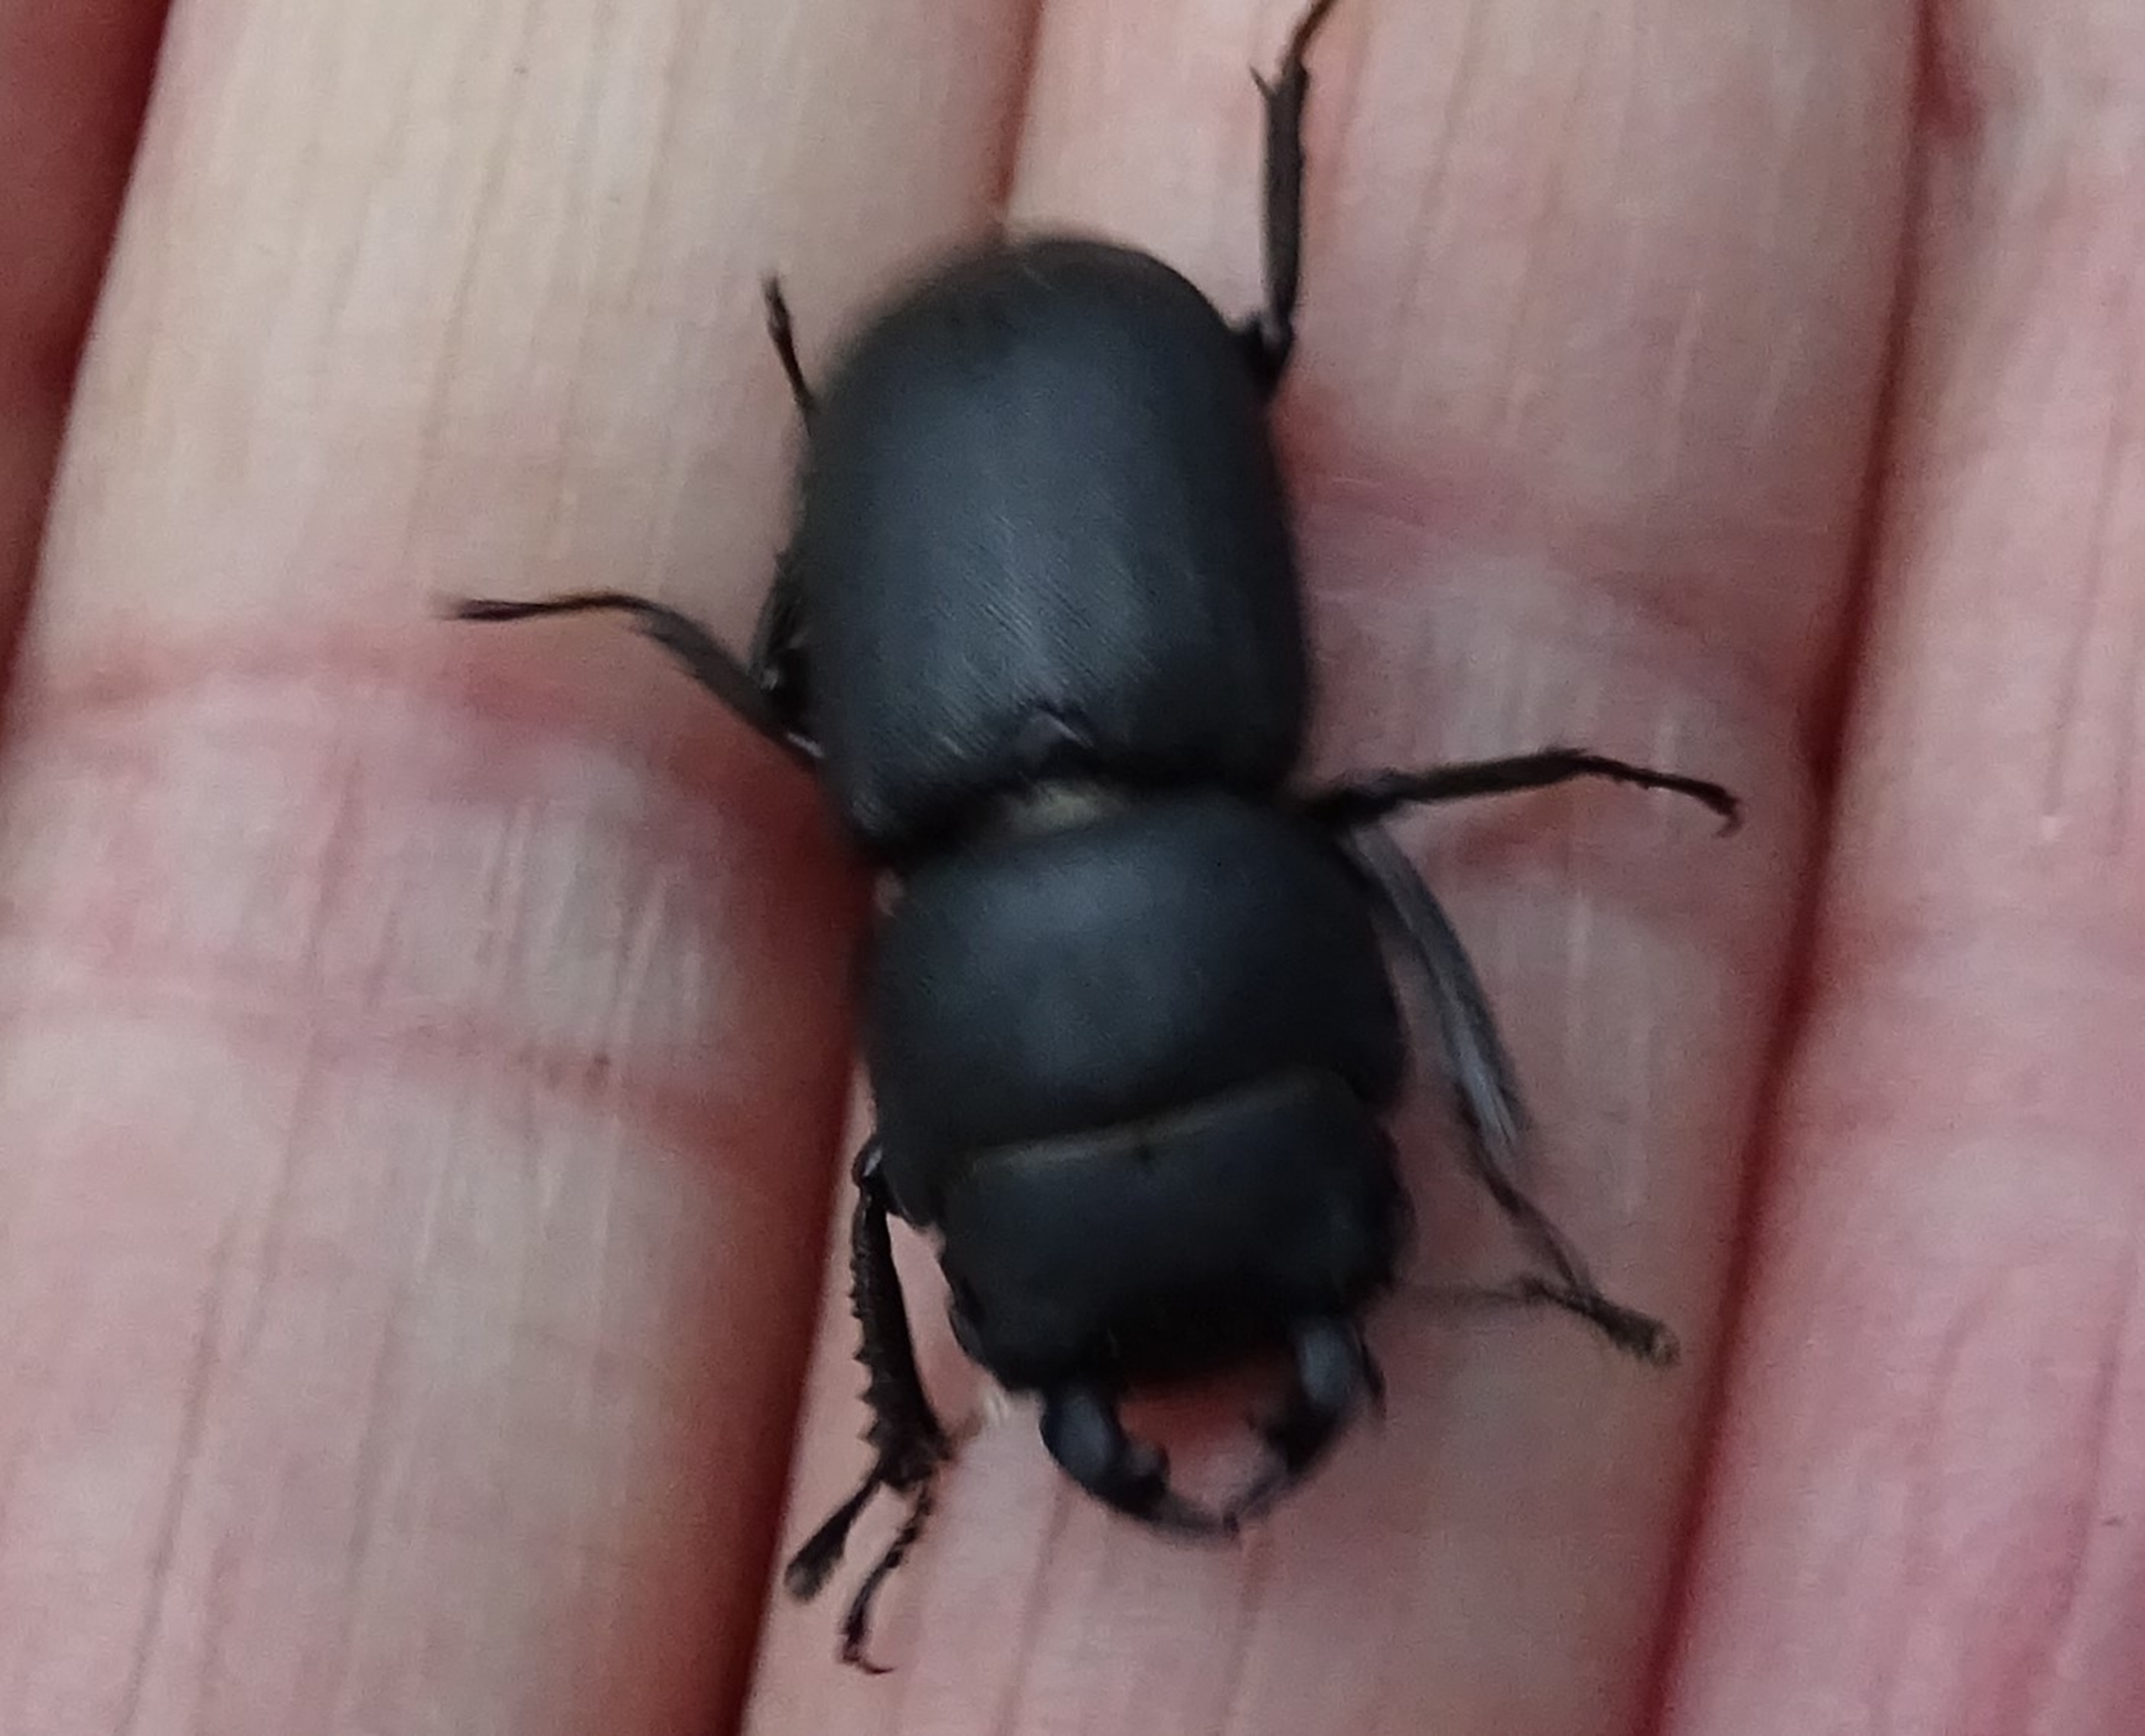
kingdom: Animalia
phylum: Arthropoda
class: Insecta
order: Coleoptera
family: Lucanidae
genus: Dorcus
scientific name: Dorcus parallelipipedus
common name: Bøghjort
